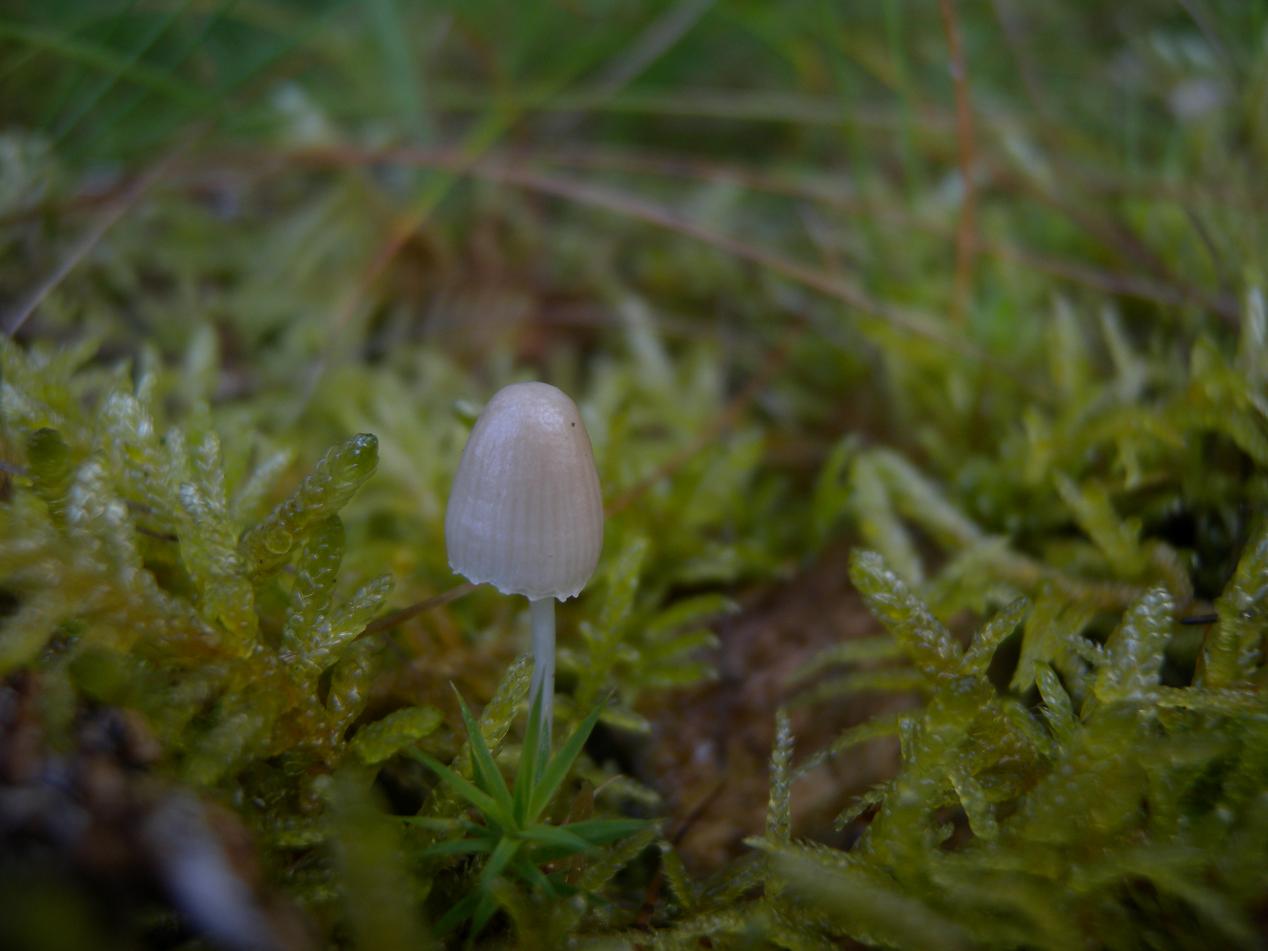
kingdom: Fungi
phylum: Basidiomycota
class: Agaricomycetes
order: Agaricales
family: Mycenaceae
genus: Mycena
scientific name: Mycena epipterygia
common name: gulstokket huesvamp
